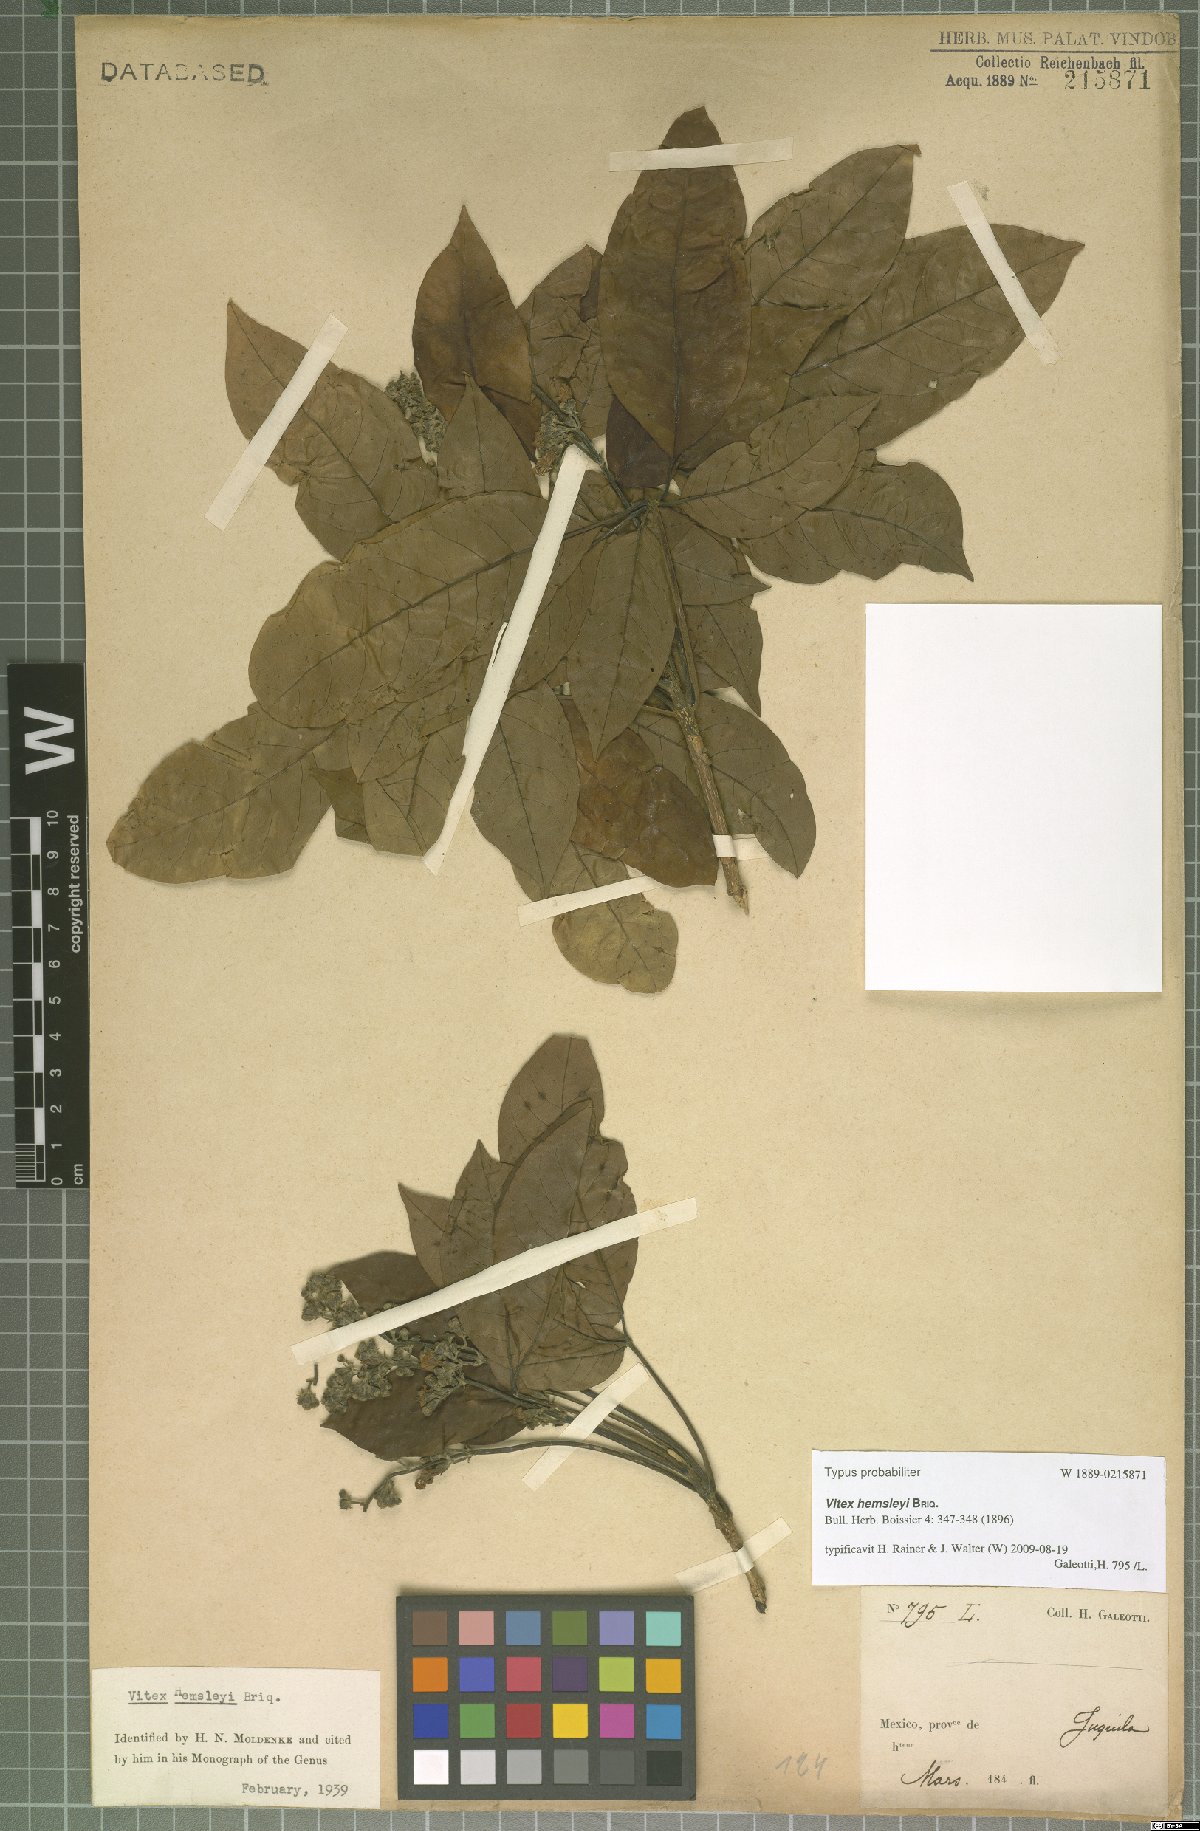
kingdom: Plantae
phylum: Tracheophyta
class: Magnoliopsida
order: Lamiales
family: Lamiaceae
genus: Vitex
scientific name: Vitex hemsleyi
